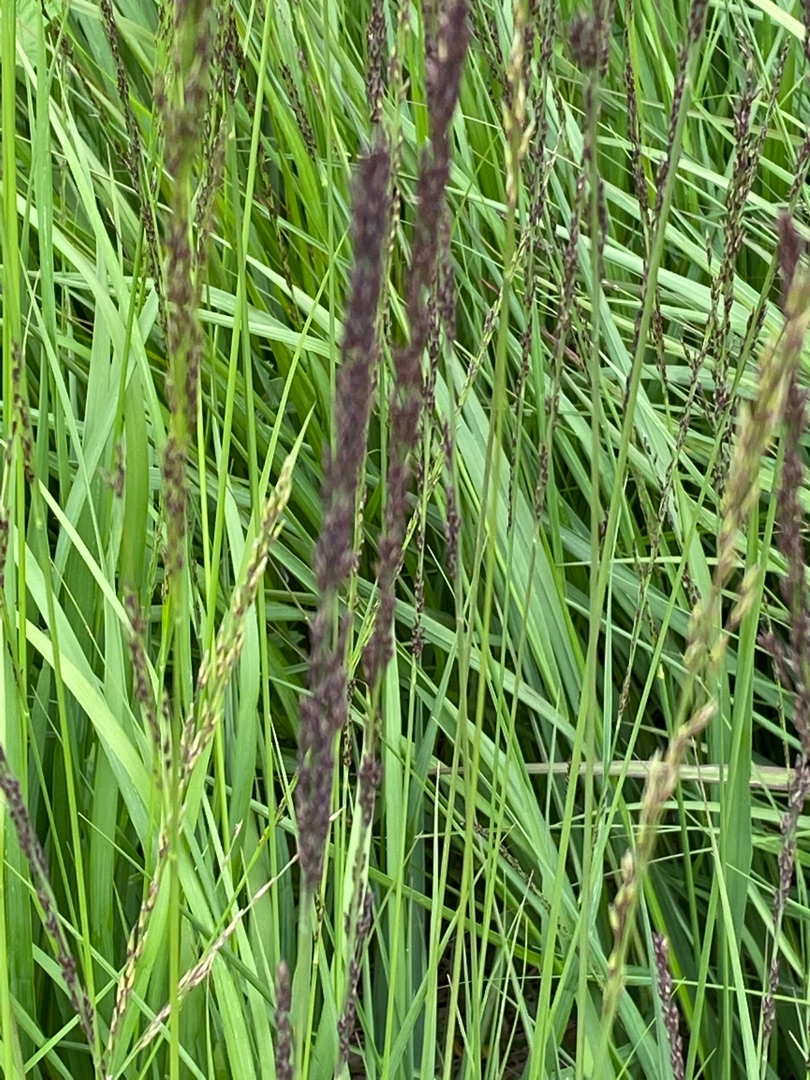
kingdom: Plantae
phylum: Tracheophyta
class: Liliopsida
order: Poales
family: Poaceae
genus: Molinia
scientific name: Molinia caerulea
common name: Blåtop
